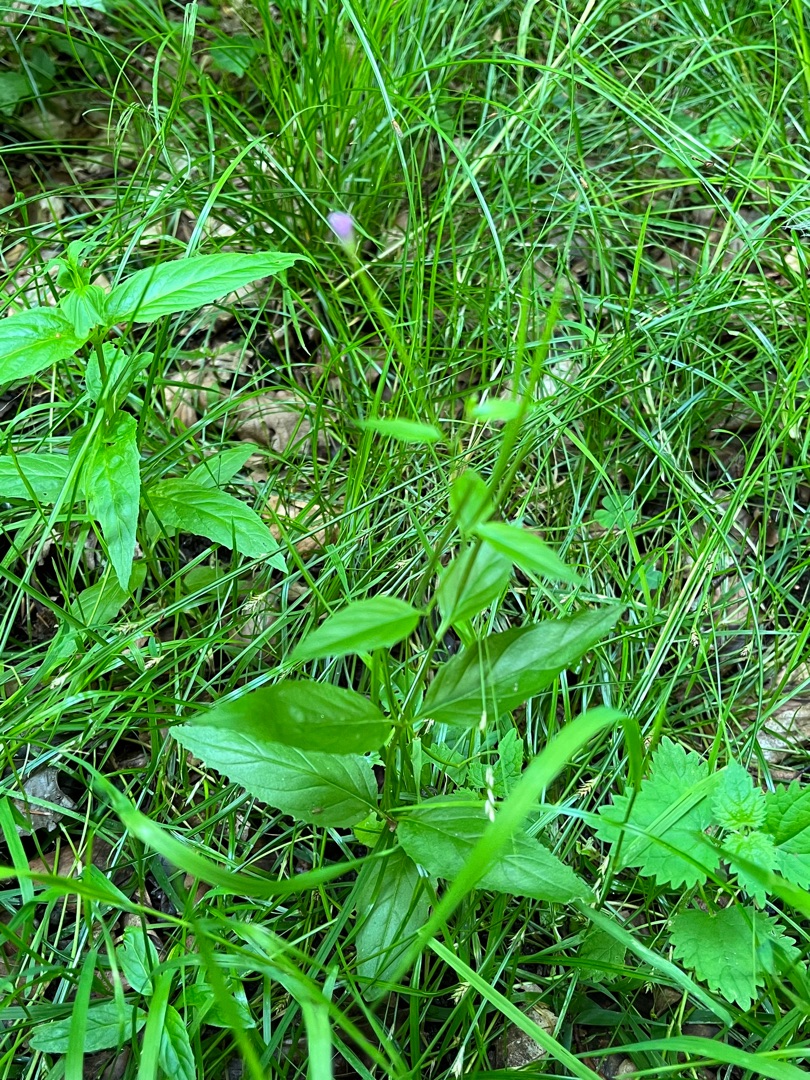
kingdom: Plantae
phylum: Tracheophyta
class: Magnoliopsida
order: Myrtales
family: Onagraceae
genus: Epilobium
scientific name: Epilobium montanum
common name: Glat dueurt
